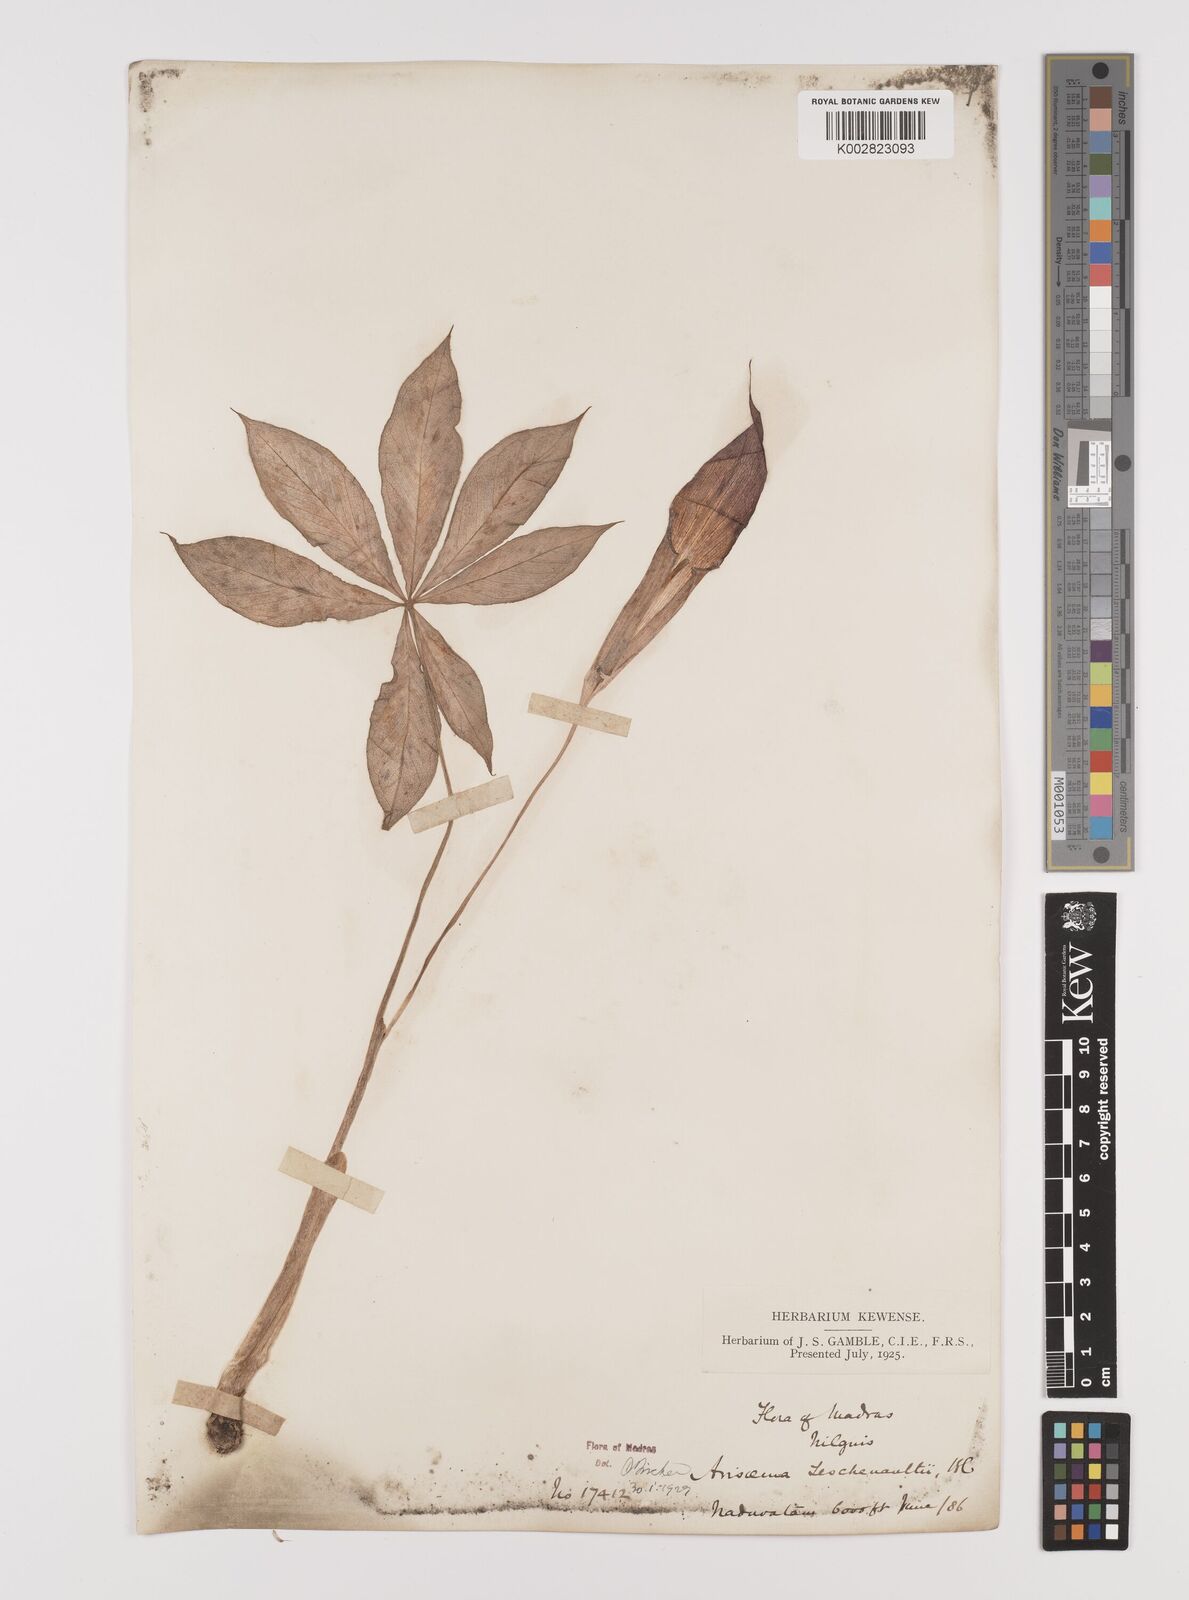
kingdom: Plantae
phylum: Tracheophyta
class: Liliopsida
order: Alismatales
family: Araceae
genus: Arisaema
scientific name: Arisaema leschenaultii
